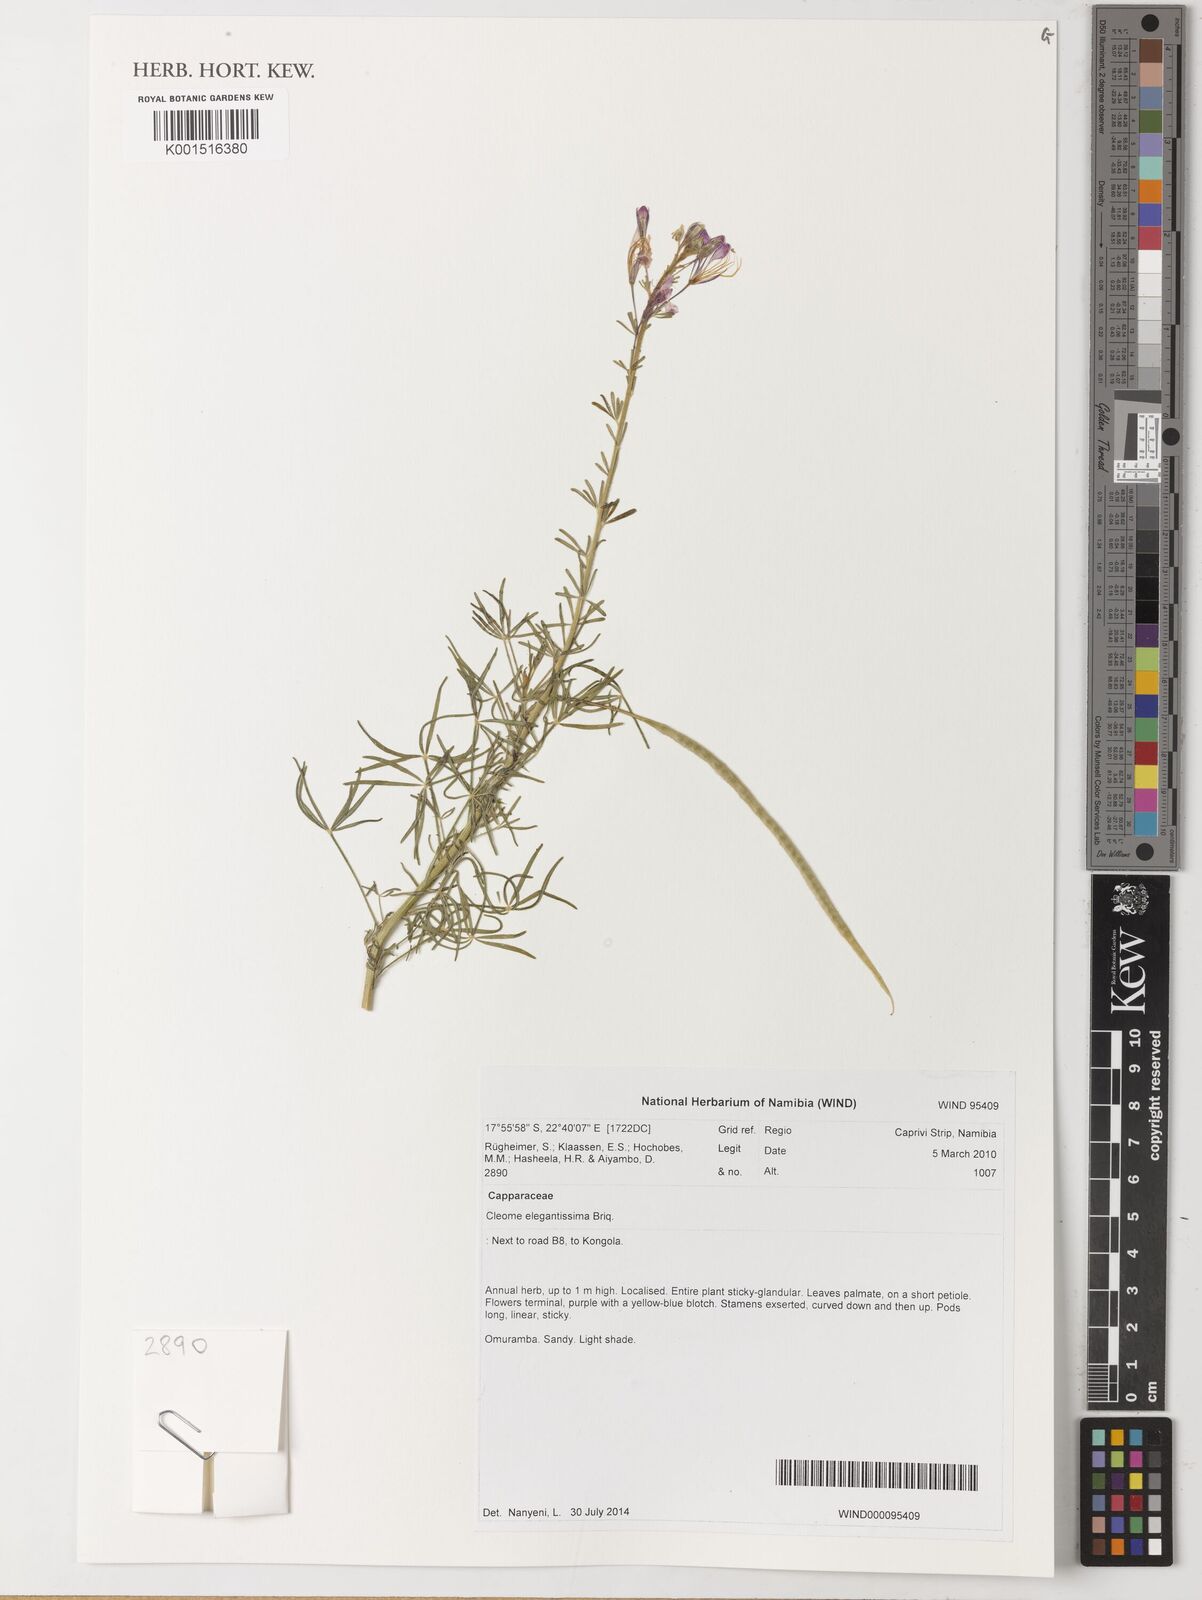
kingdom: Plantae
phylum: Tracheophyta
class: Magnoliopsida
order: Brassicales
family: Cleomaceae
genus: Sieruela
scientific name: Sieruela elegantissima
